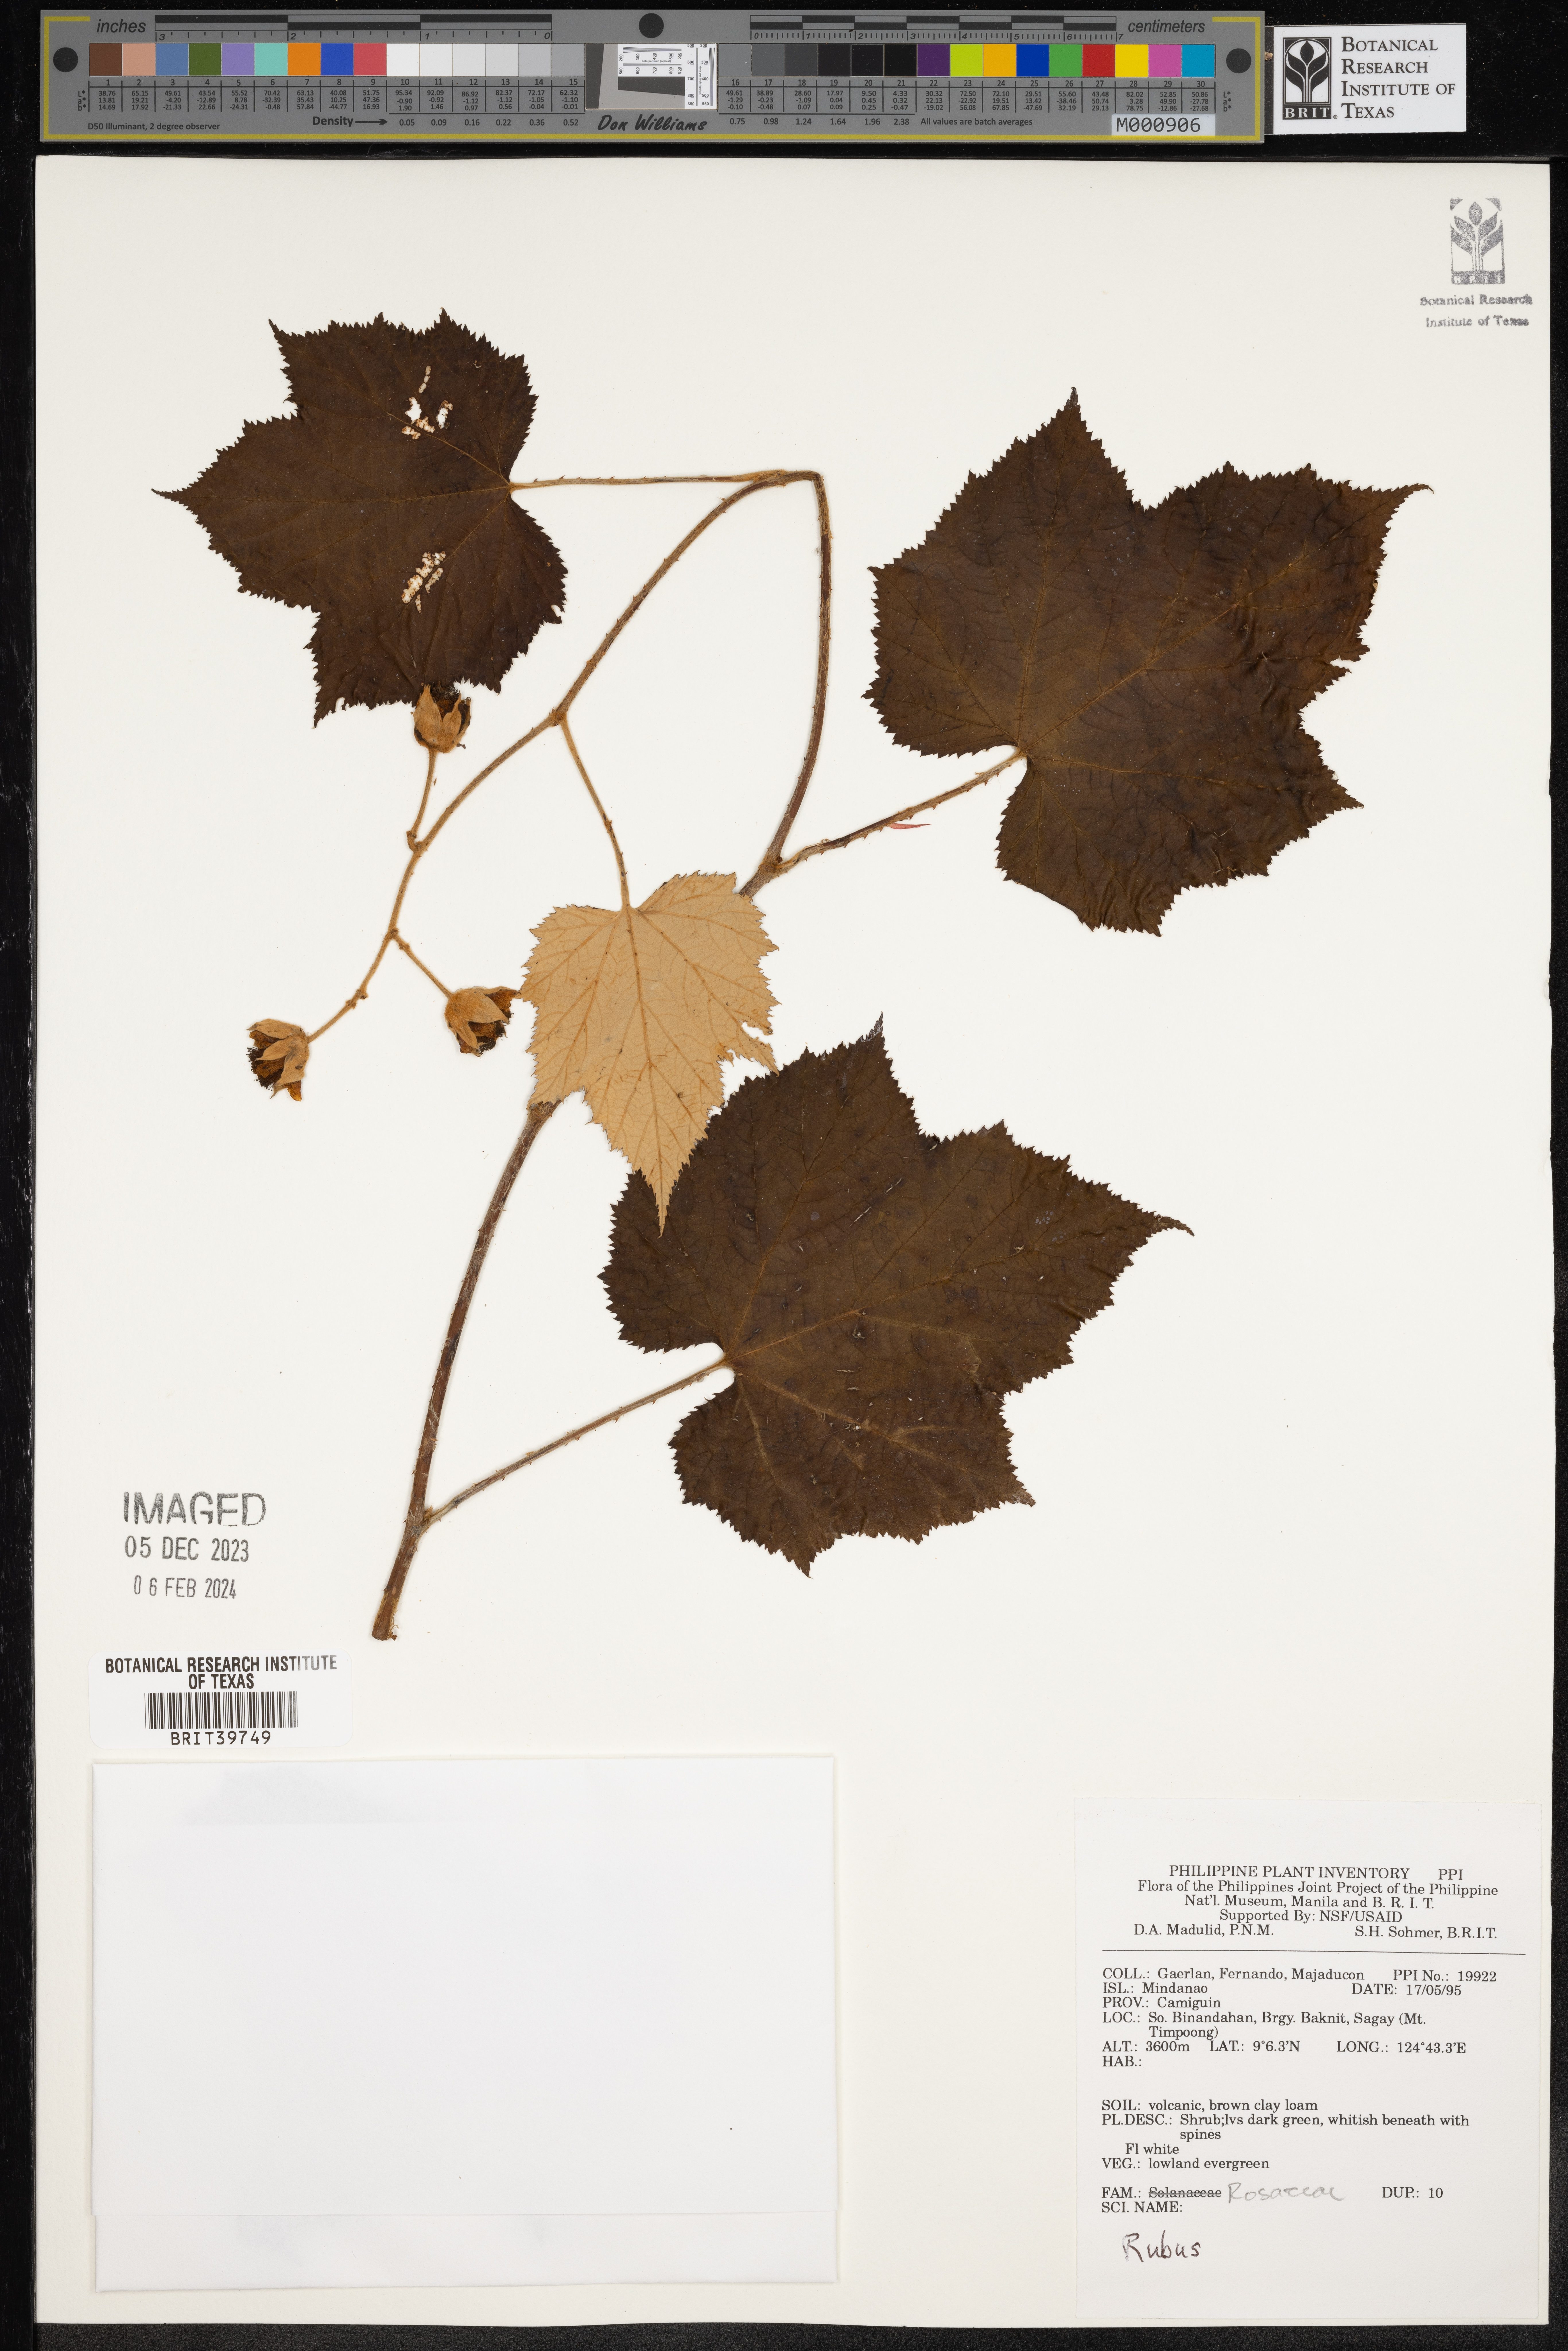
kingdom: Plantae
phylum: Tracheophyta
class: Magnoliopsida
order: Rosales
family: Rosaceae
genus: Rubus
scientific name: Rubus
